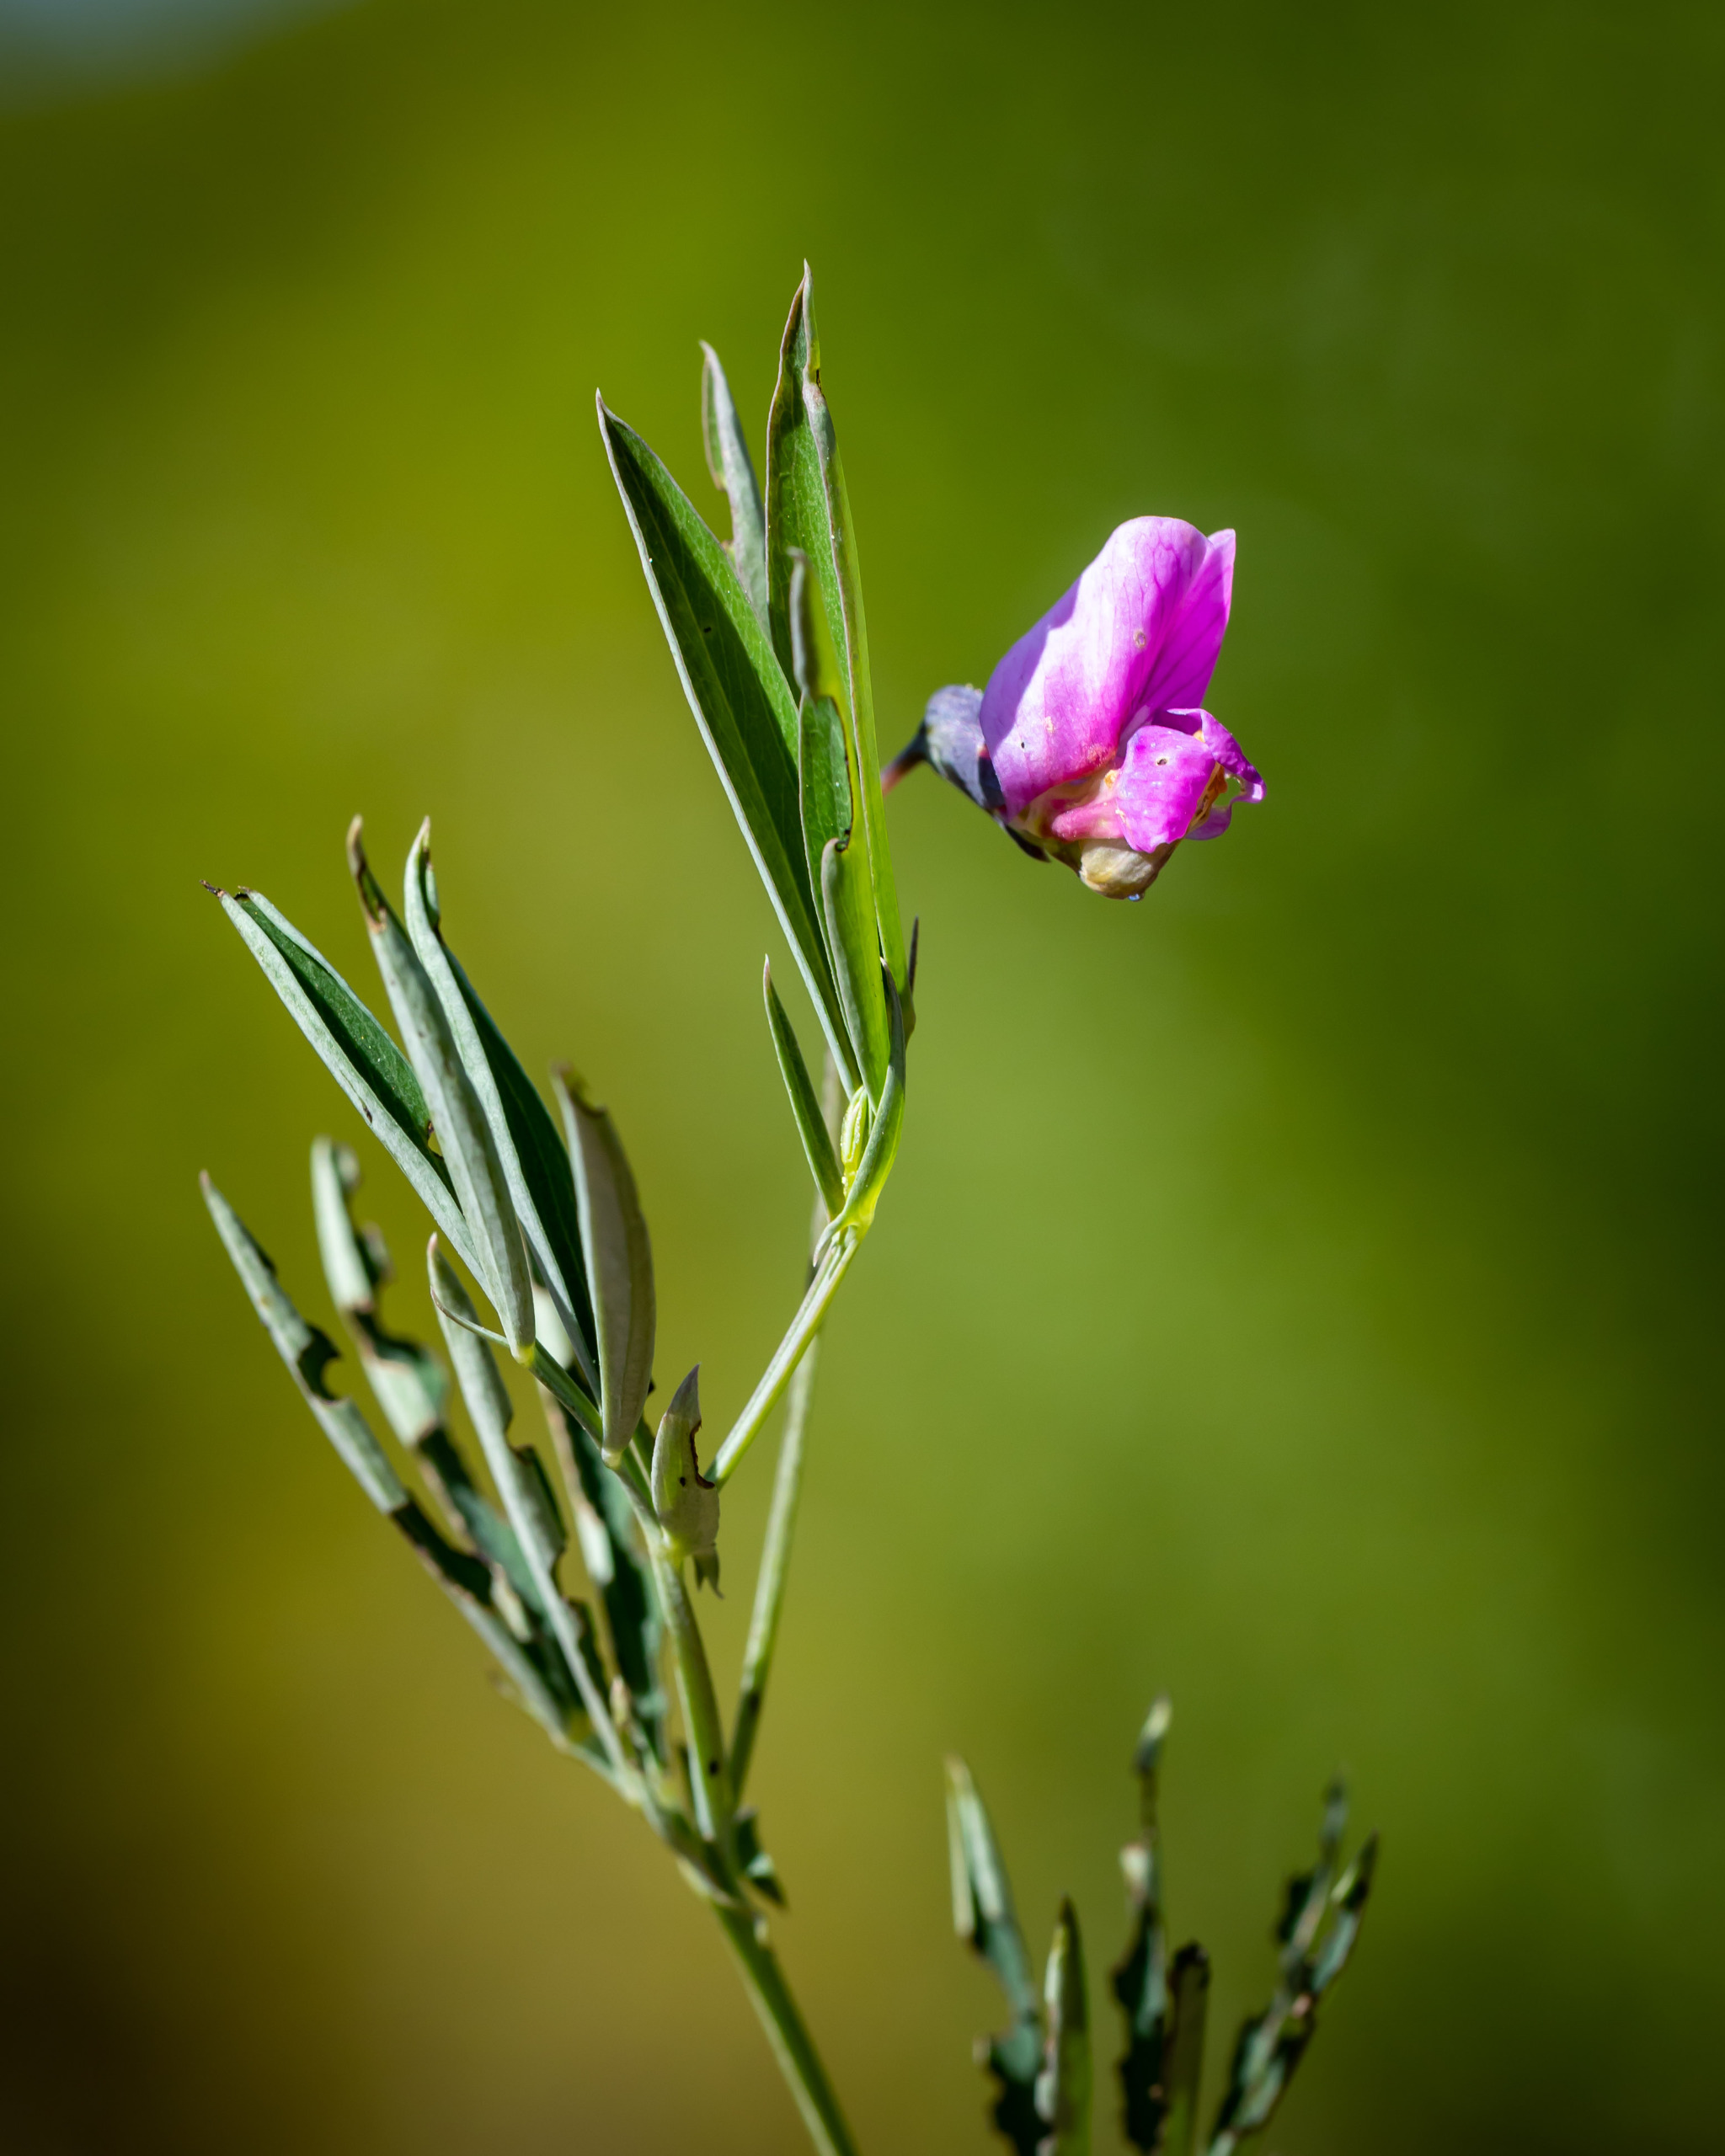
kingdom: Plantae
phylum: Tracheophyta
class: Magnoliopsida
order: Fabales
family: Fabaceae
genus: Lathyrus
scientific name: Lathyrus linifolius
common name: Krat-fladbælg
